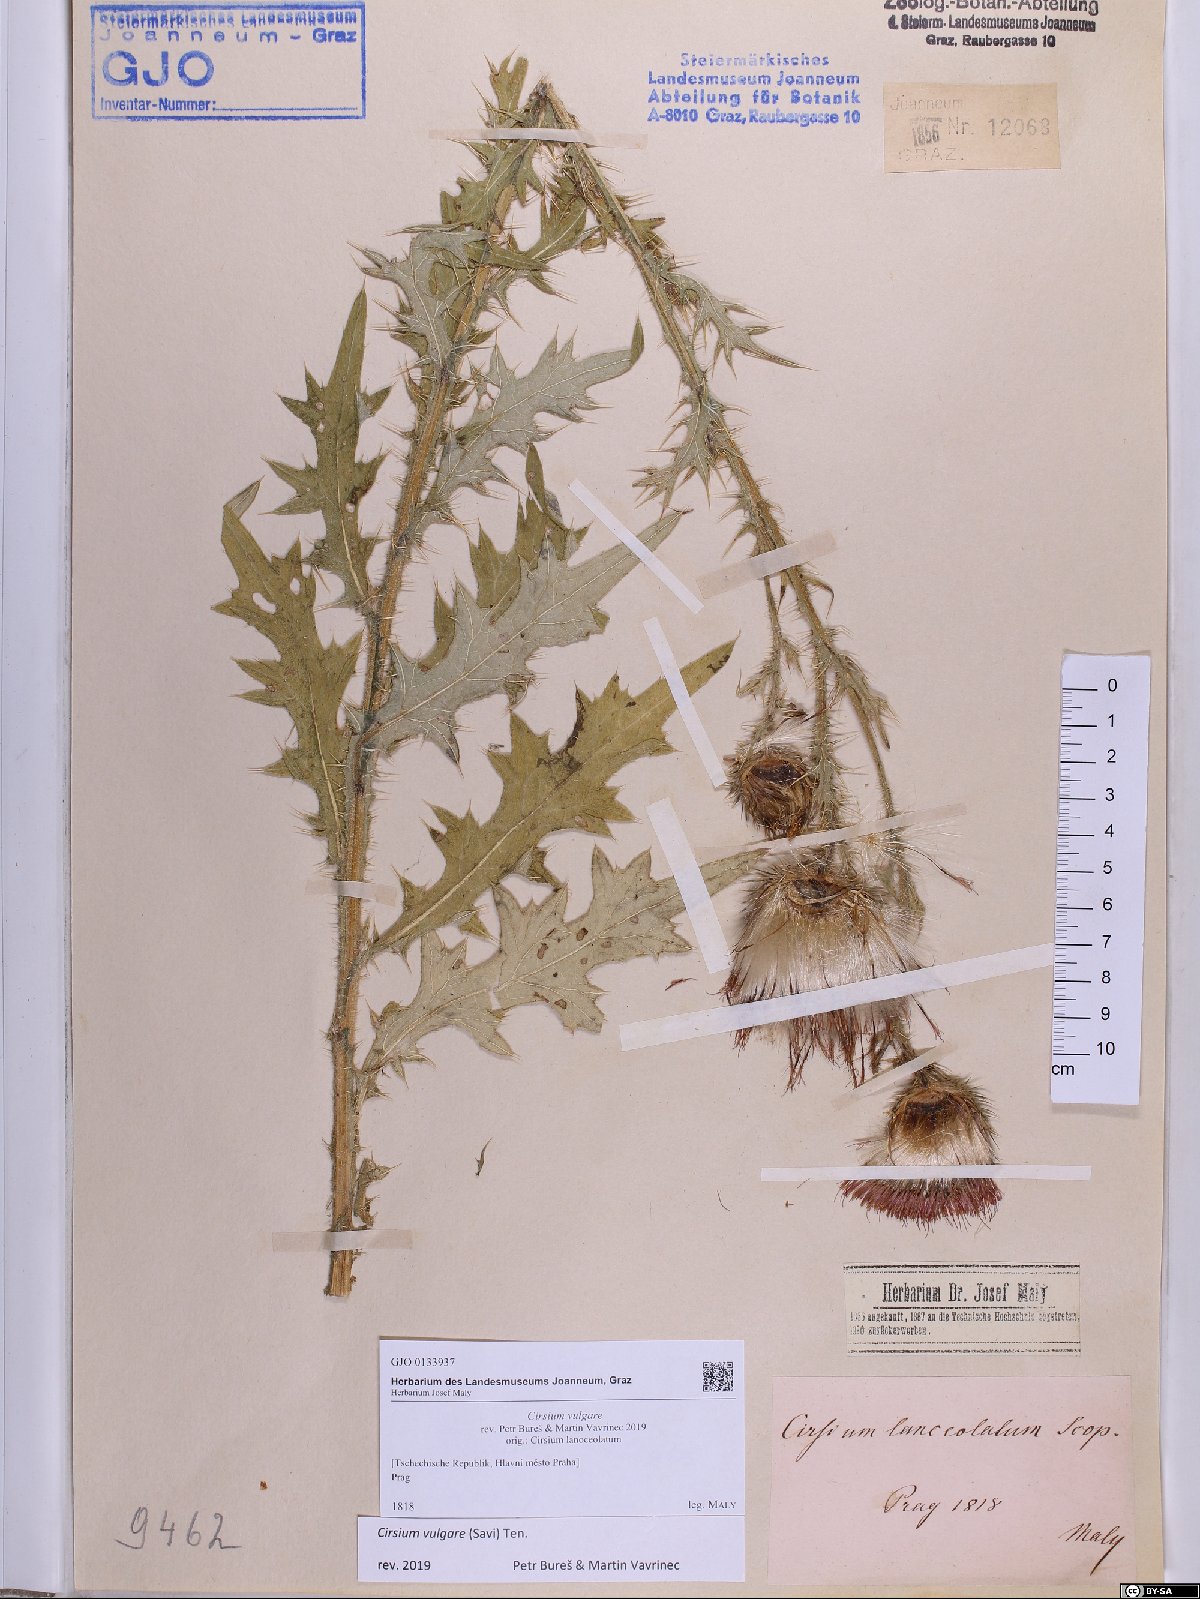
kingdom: Plantae
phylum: Tracheophyta
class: Magnoliopsida
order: Asterales
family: Asteraceae
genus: Cirsium
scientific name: Cirsium vulgare
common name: Bull thistle
